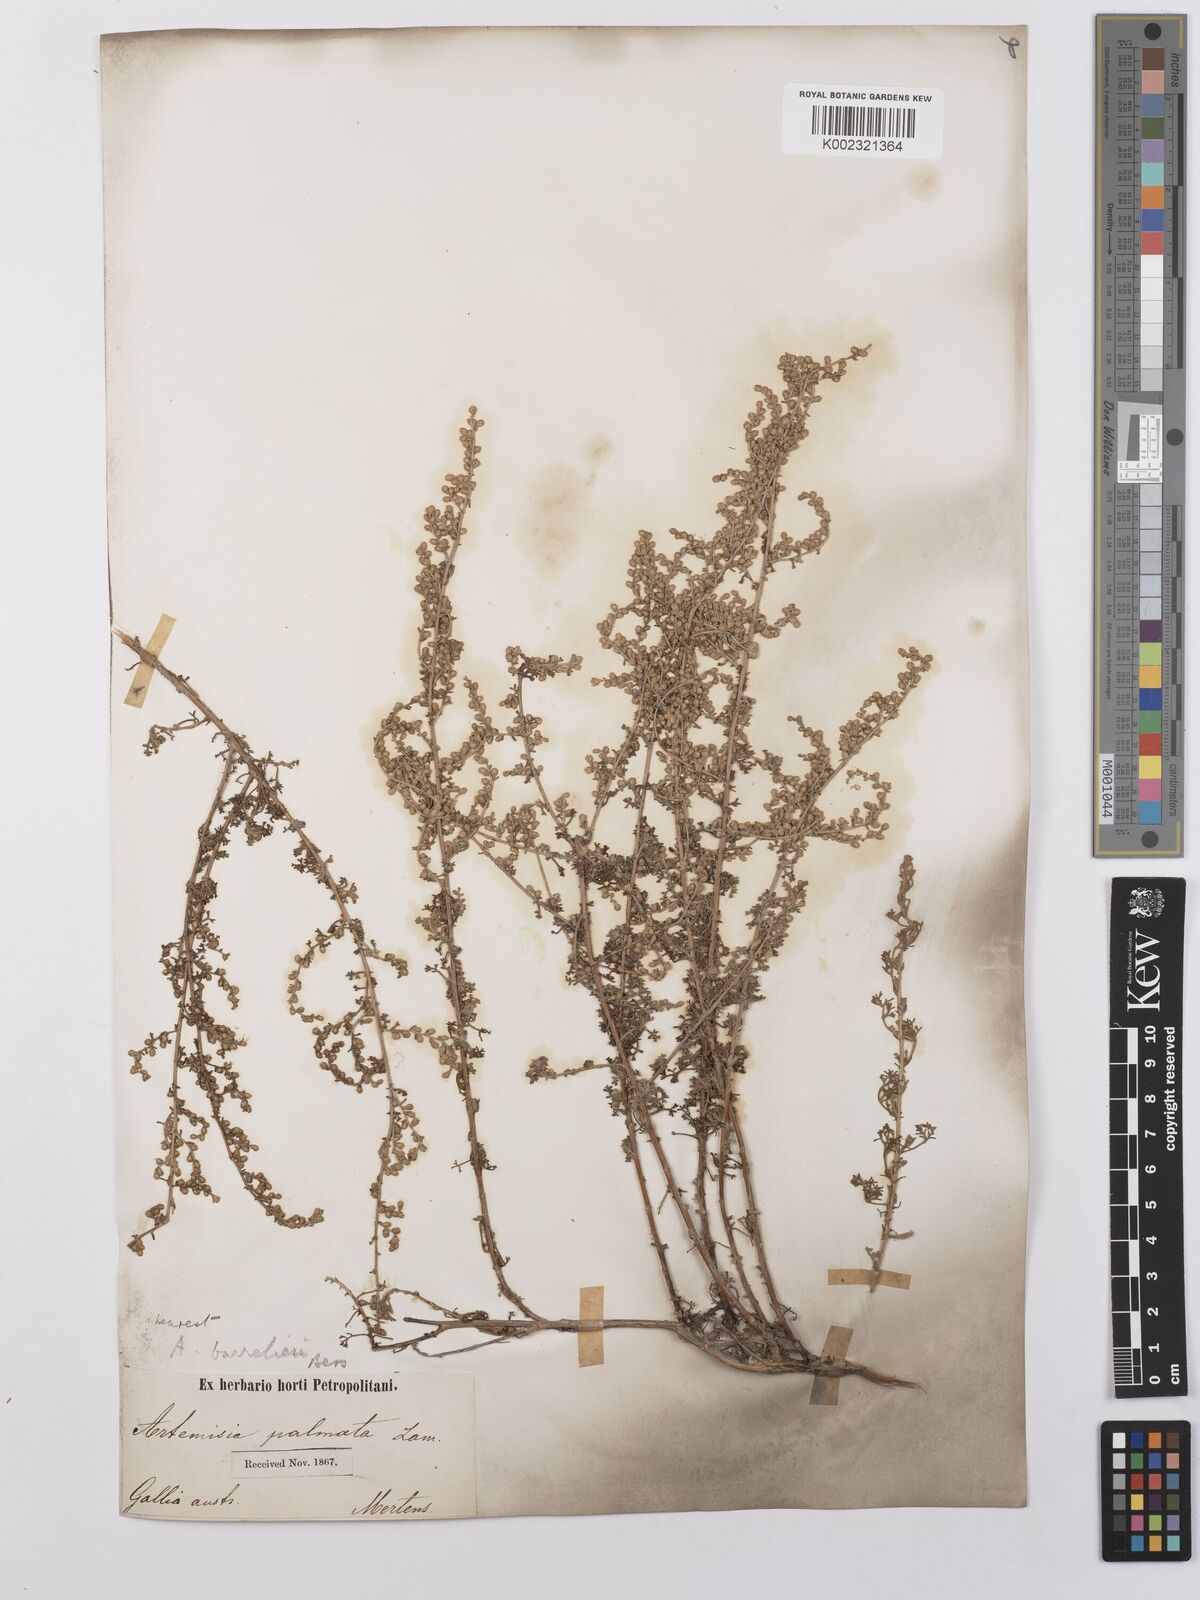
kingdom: Plantae
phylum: Tracheophyta
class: Magnoliopsida
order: Asterales
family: Asteraceae
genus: Artemisia
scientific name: Artemisia barrelieri
